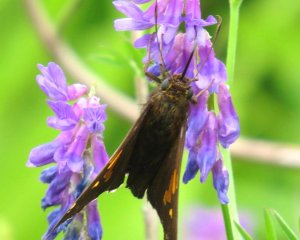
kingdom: Animalia
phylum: Arthropoda
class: Insecta
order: Lepidoptera
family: Hesperiidae
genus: Epargyreus
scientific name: Epargyreus clarus
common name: Silver-spotted Skipper
